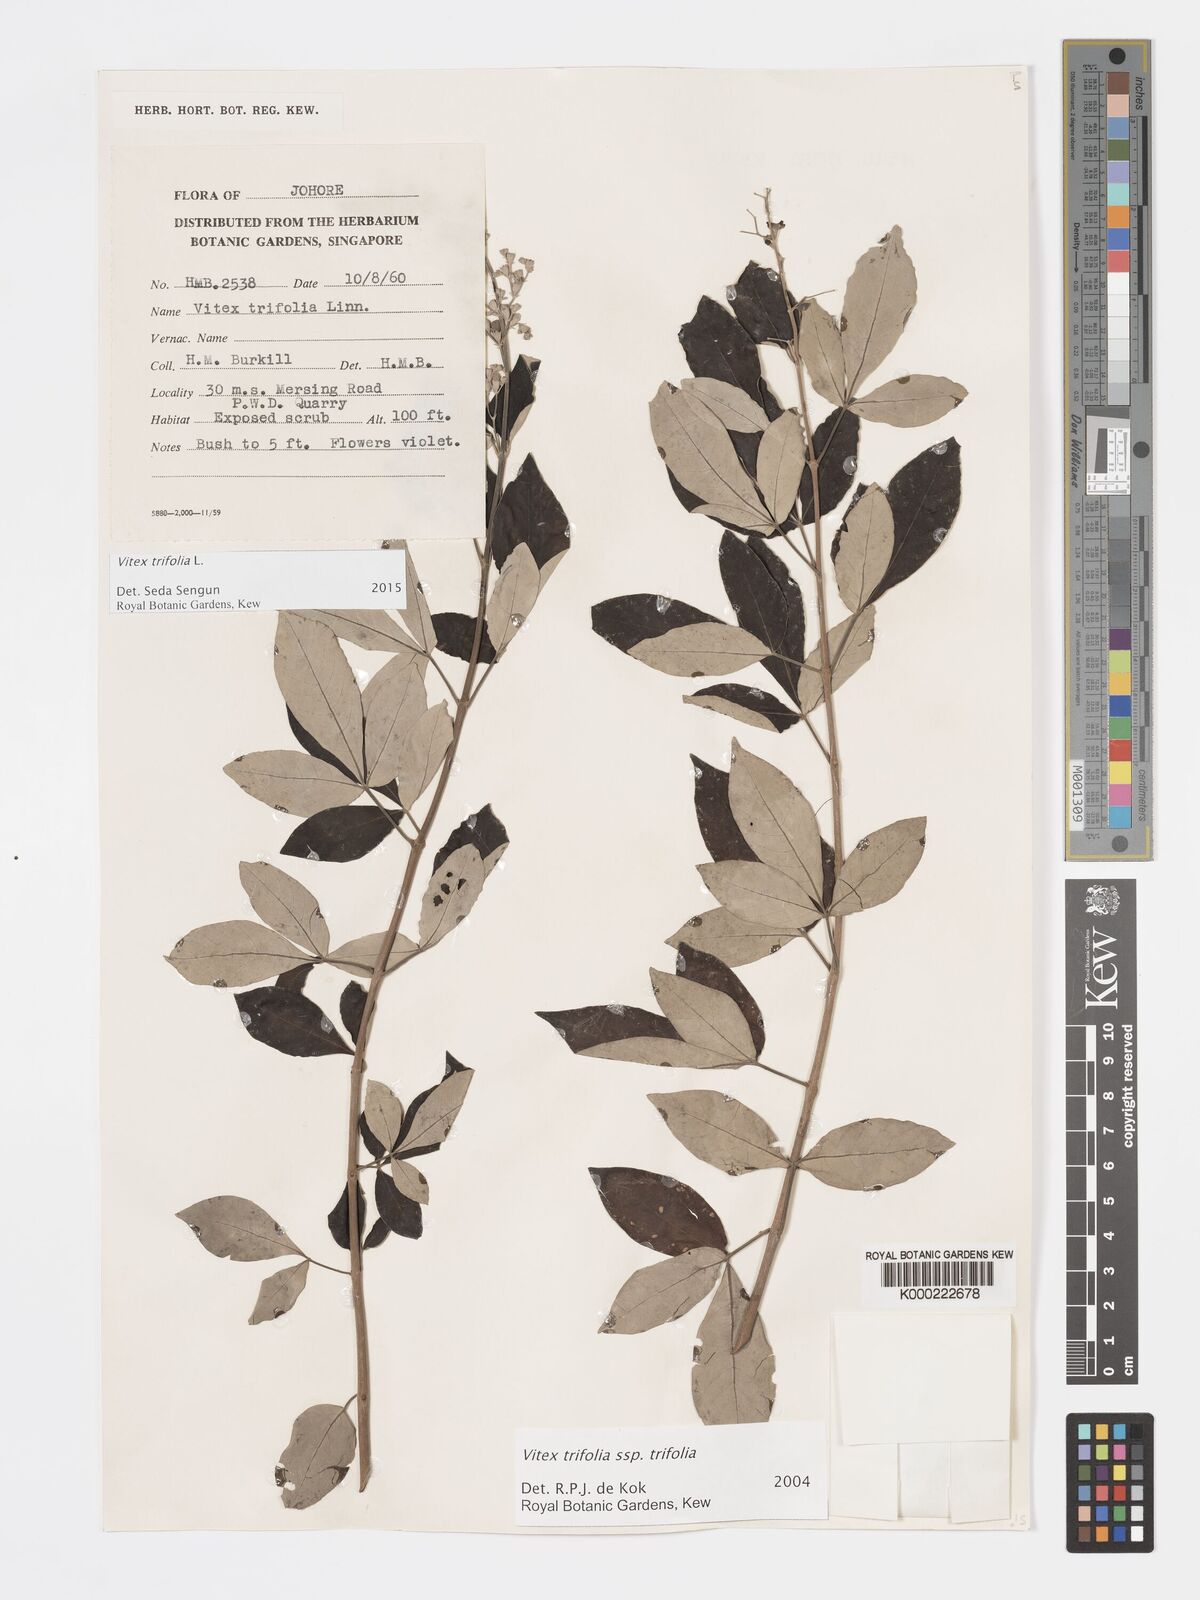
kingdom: Plantae
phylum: Tracheophyta
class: Magnoliopsida
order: Lamiales
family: Lamiaceae
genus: Vitex
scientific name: Vitex trifolia
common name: Simpleleaf chastetree
